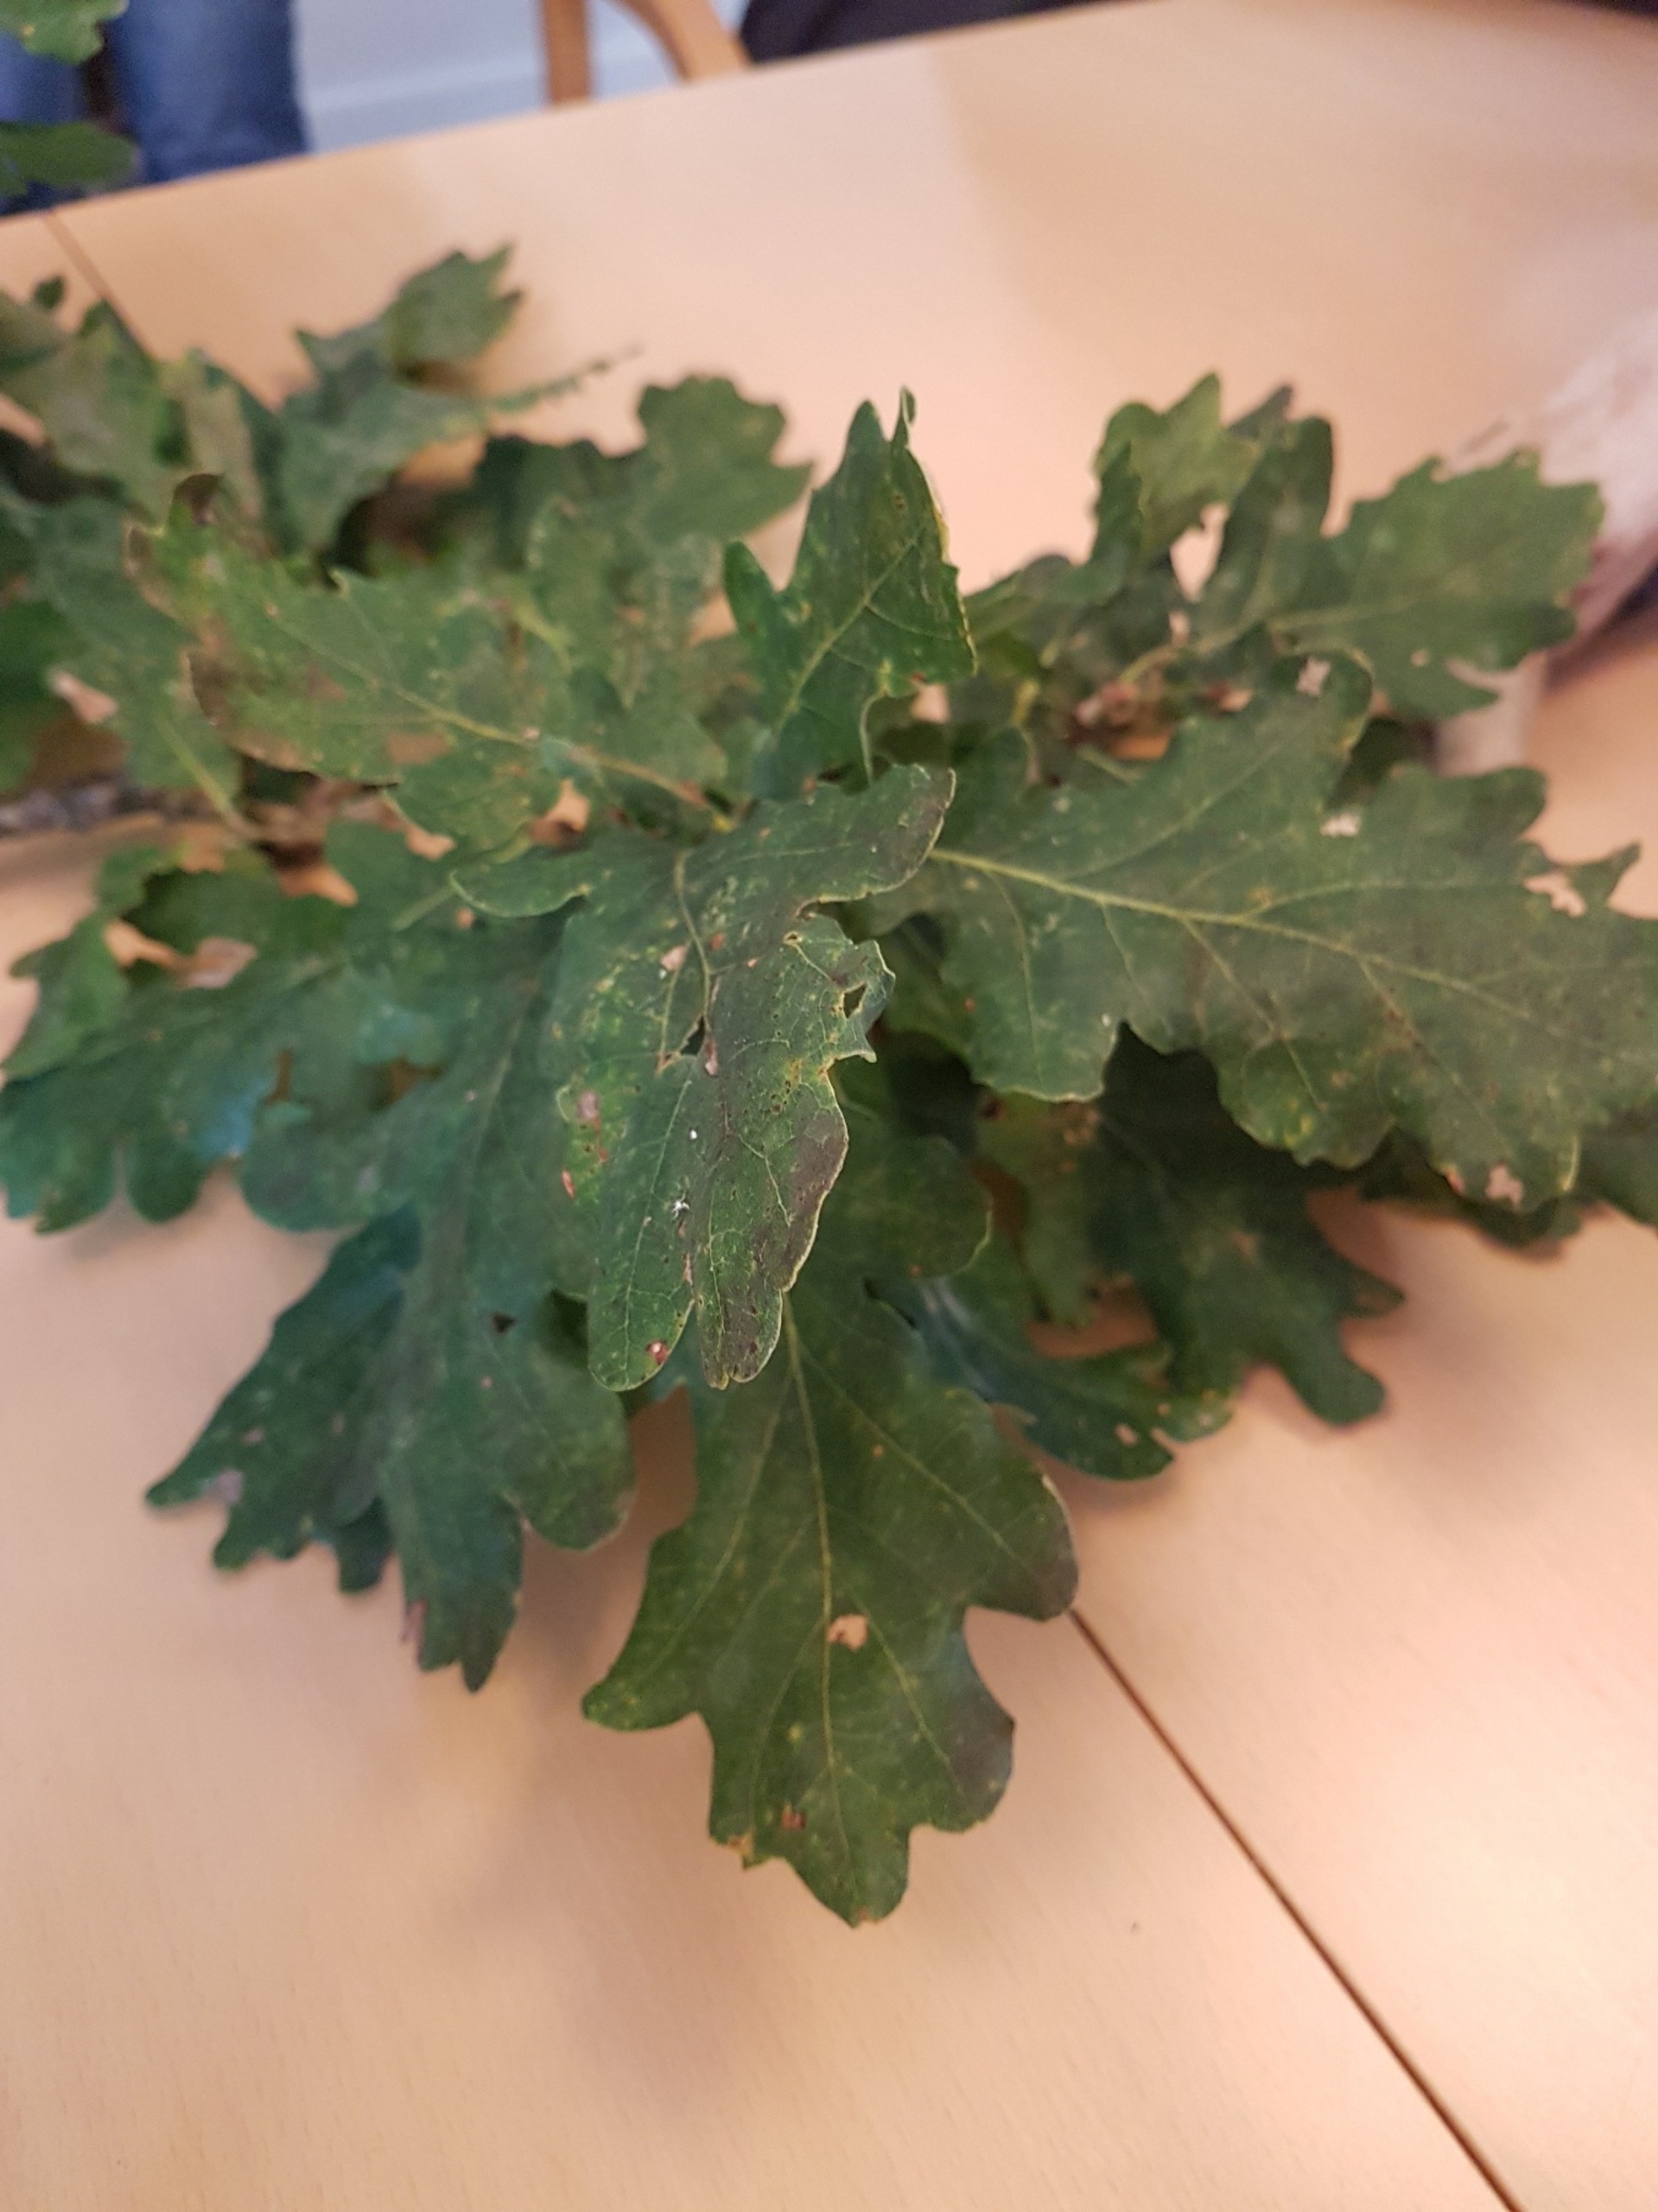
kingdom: Plantae
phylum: Tracheophyta
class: Magnoliopsida
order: Fagales
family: Fagaceae
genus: Quercus
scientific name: Quercus robur
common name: Stilk-eg/almindelig eg
